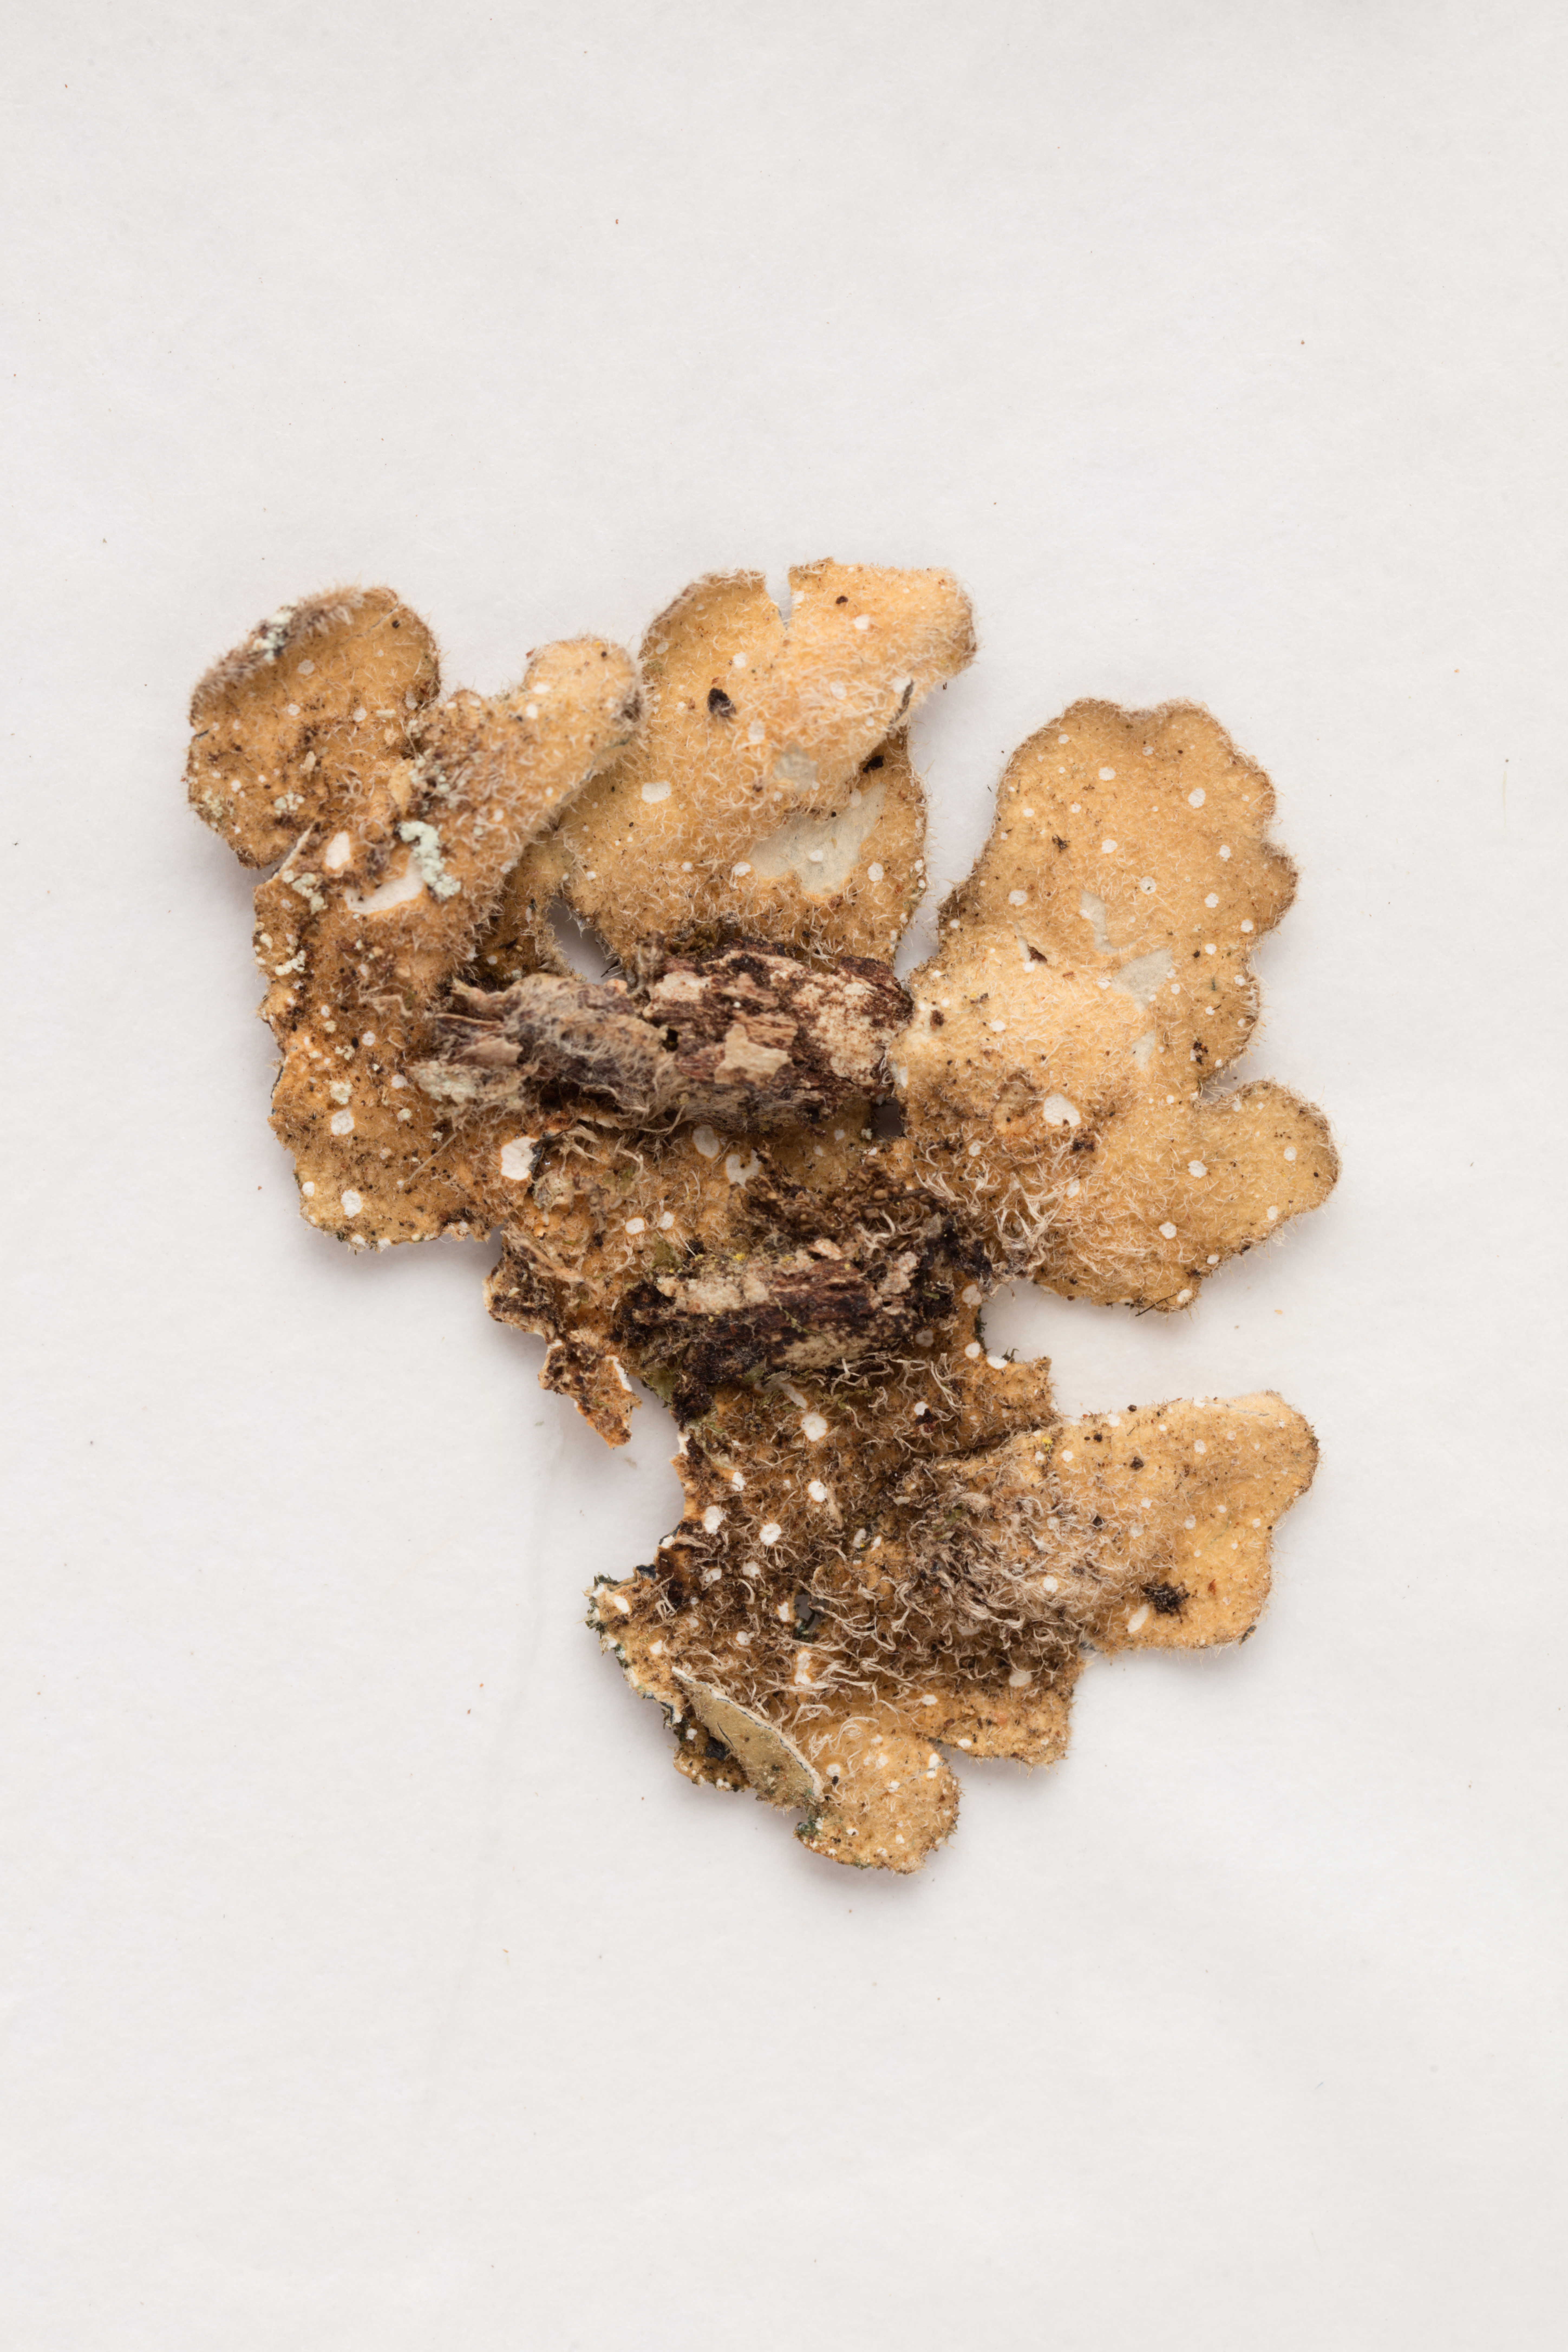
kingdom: Fungi
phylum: Ascomycota
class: Lecanoromycetes
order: Peltigerales
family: Lobariaceae
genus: Pseudocyphellaria
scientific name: Pseudocyphellaria allanii
